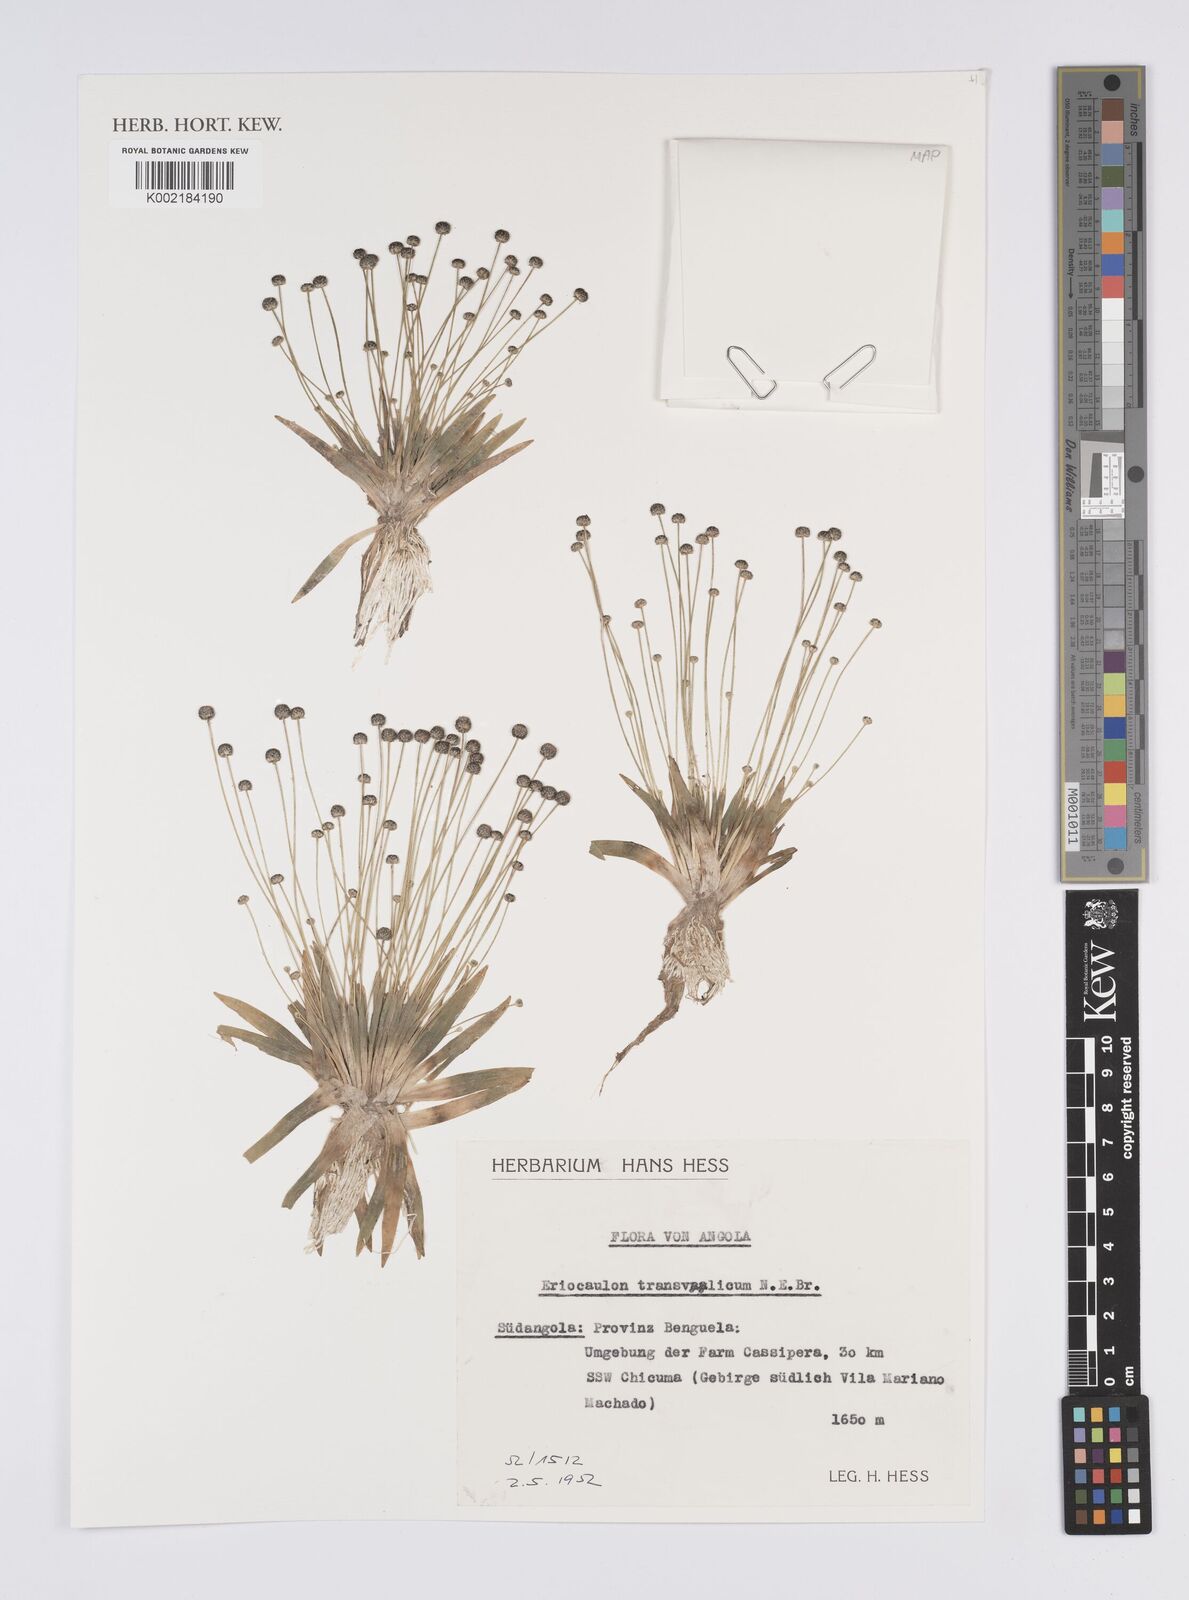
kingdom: Plantae
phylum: Tracheophyta
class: Liliopsida
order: Poales
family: Eriocaulaceae
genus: Eriocaulon
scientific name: Eriocaulon transvaalicum
